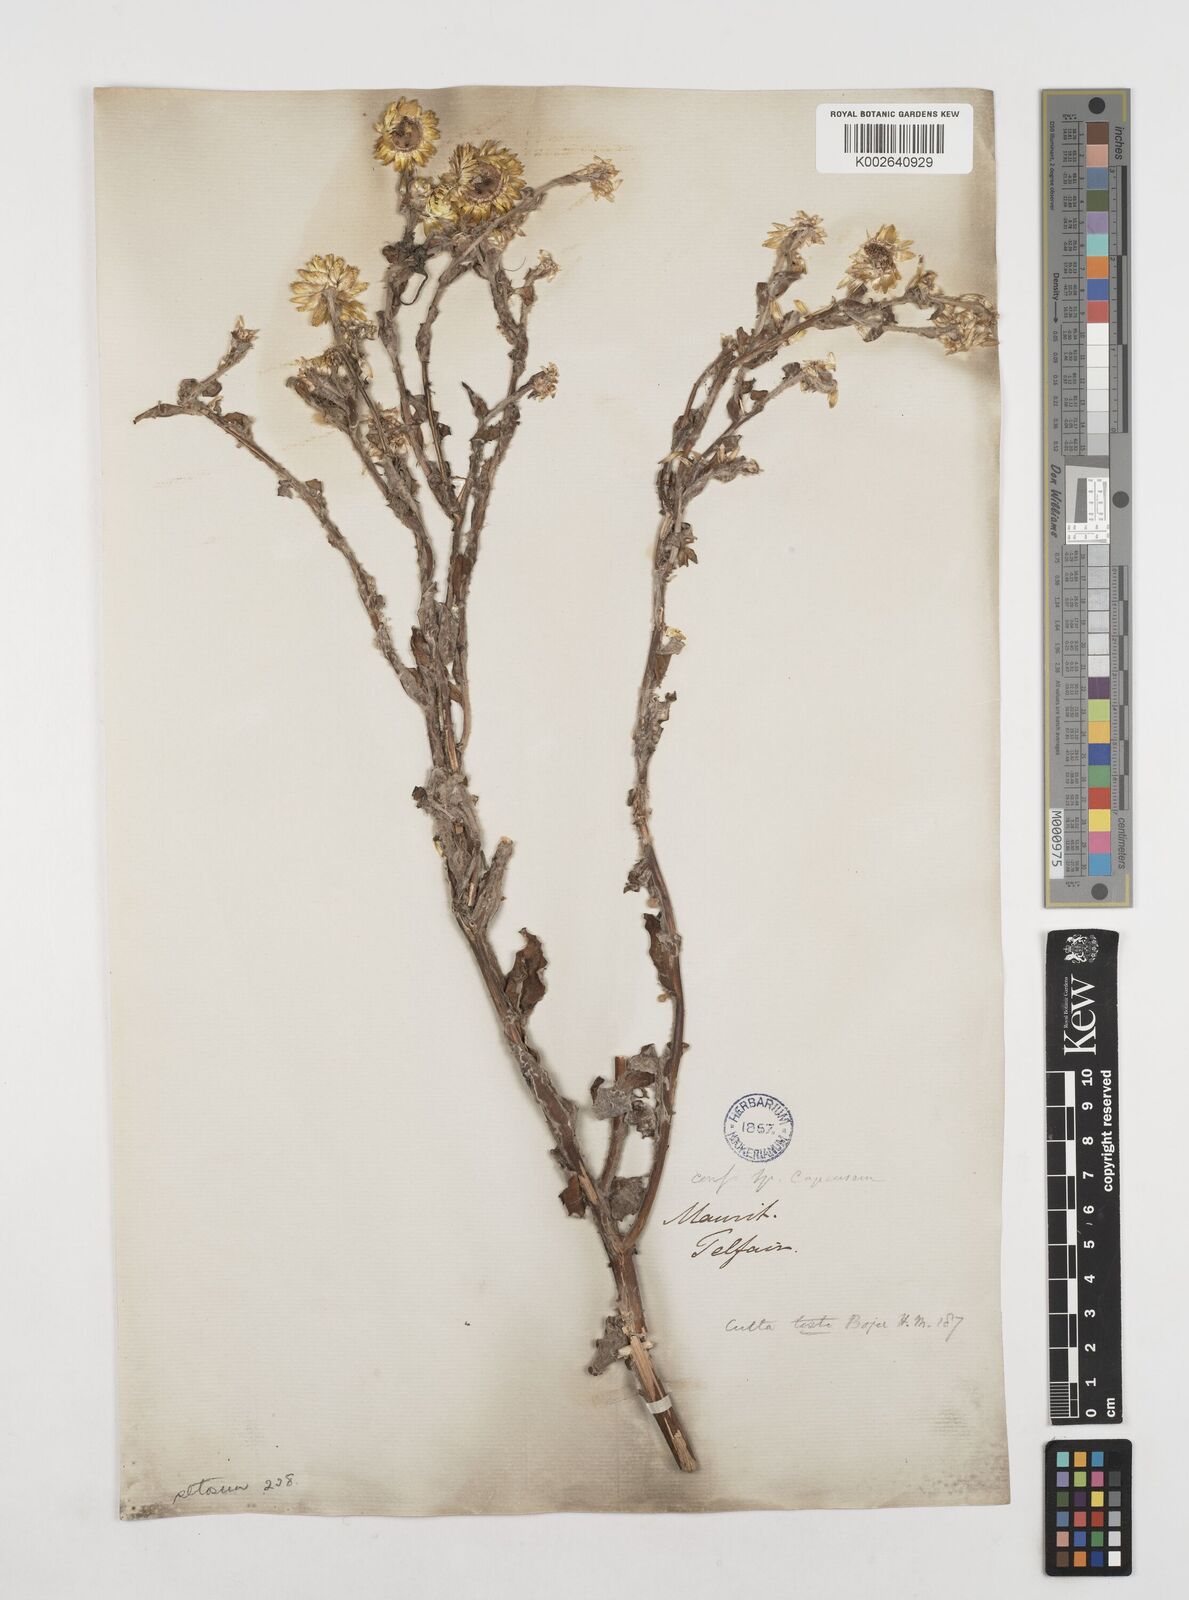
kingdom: Plantae
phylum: Tracheophyta
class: Magnoliopsida
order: Asterales
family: Asteraceae
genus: Helichrysum
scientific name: Helichrysum setosum
